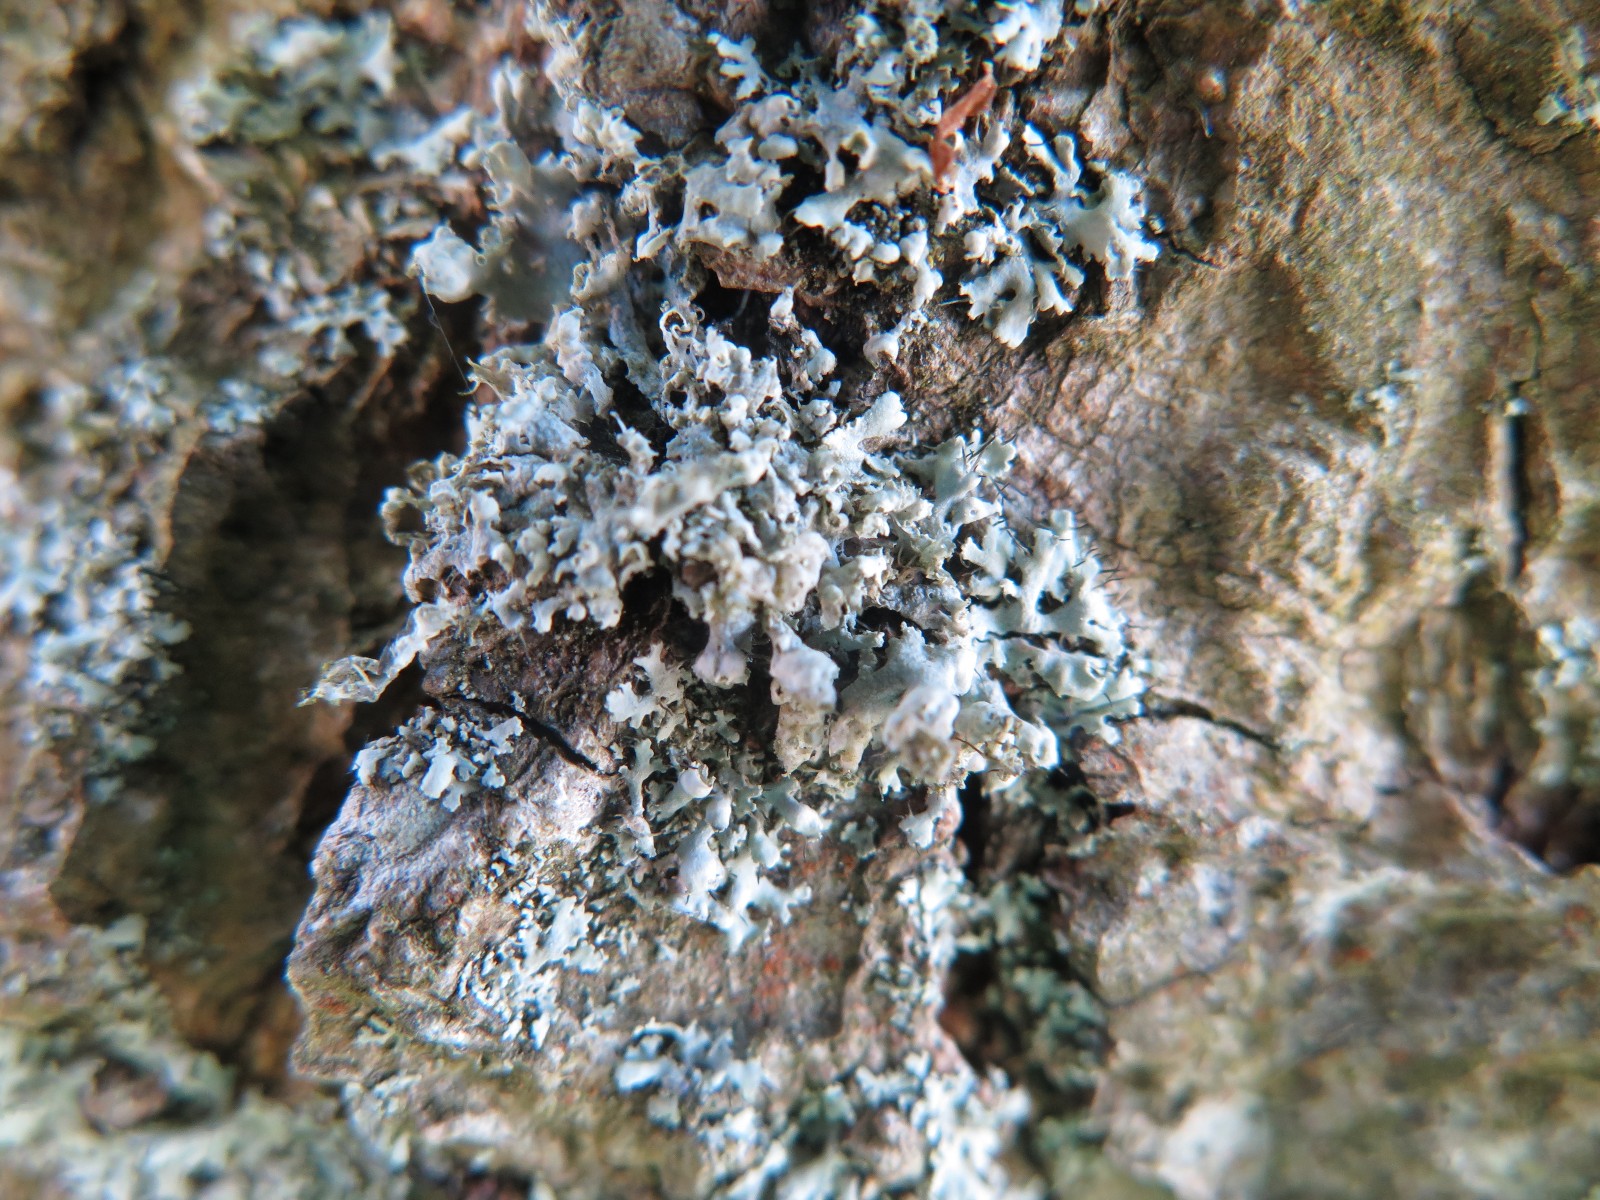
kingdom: Fungi
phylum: Ascomycota
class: Lecanoromycetes
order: Caliciales
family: Physciaceae
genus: Physcia
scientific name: Physcia adscendens
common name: hætte-rosetlav
